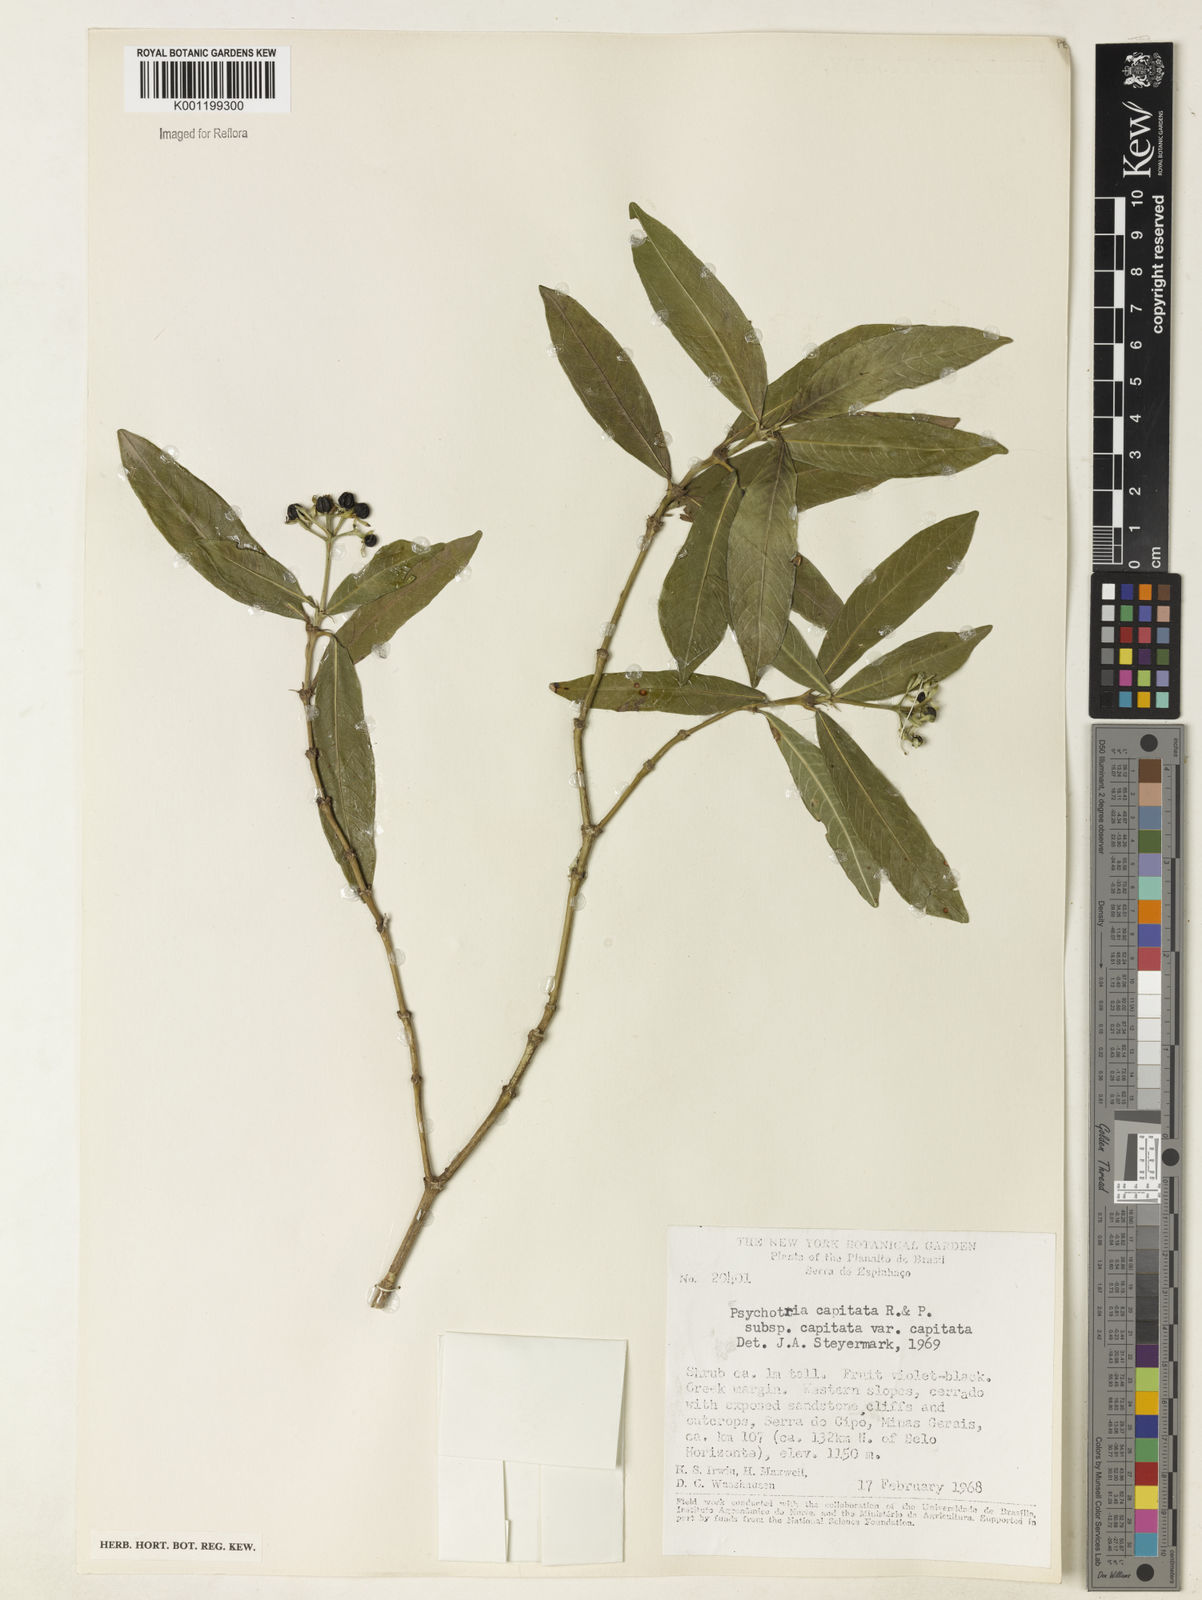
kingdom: Plantae
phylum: Tracheophyta
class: Magnoliopsida
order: Gentianales
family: Rubiaceae
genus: Palicourea
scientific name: Palicourea violacea
